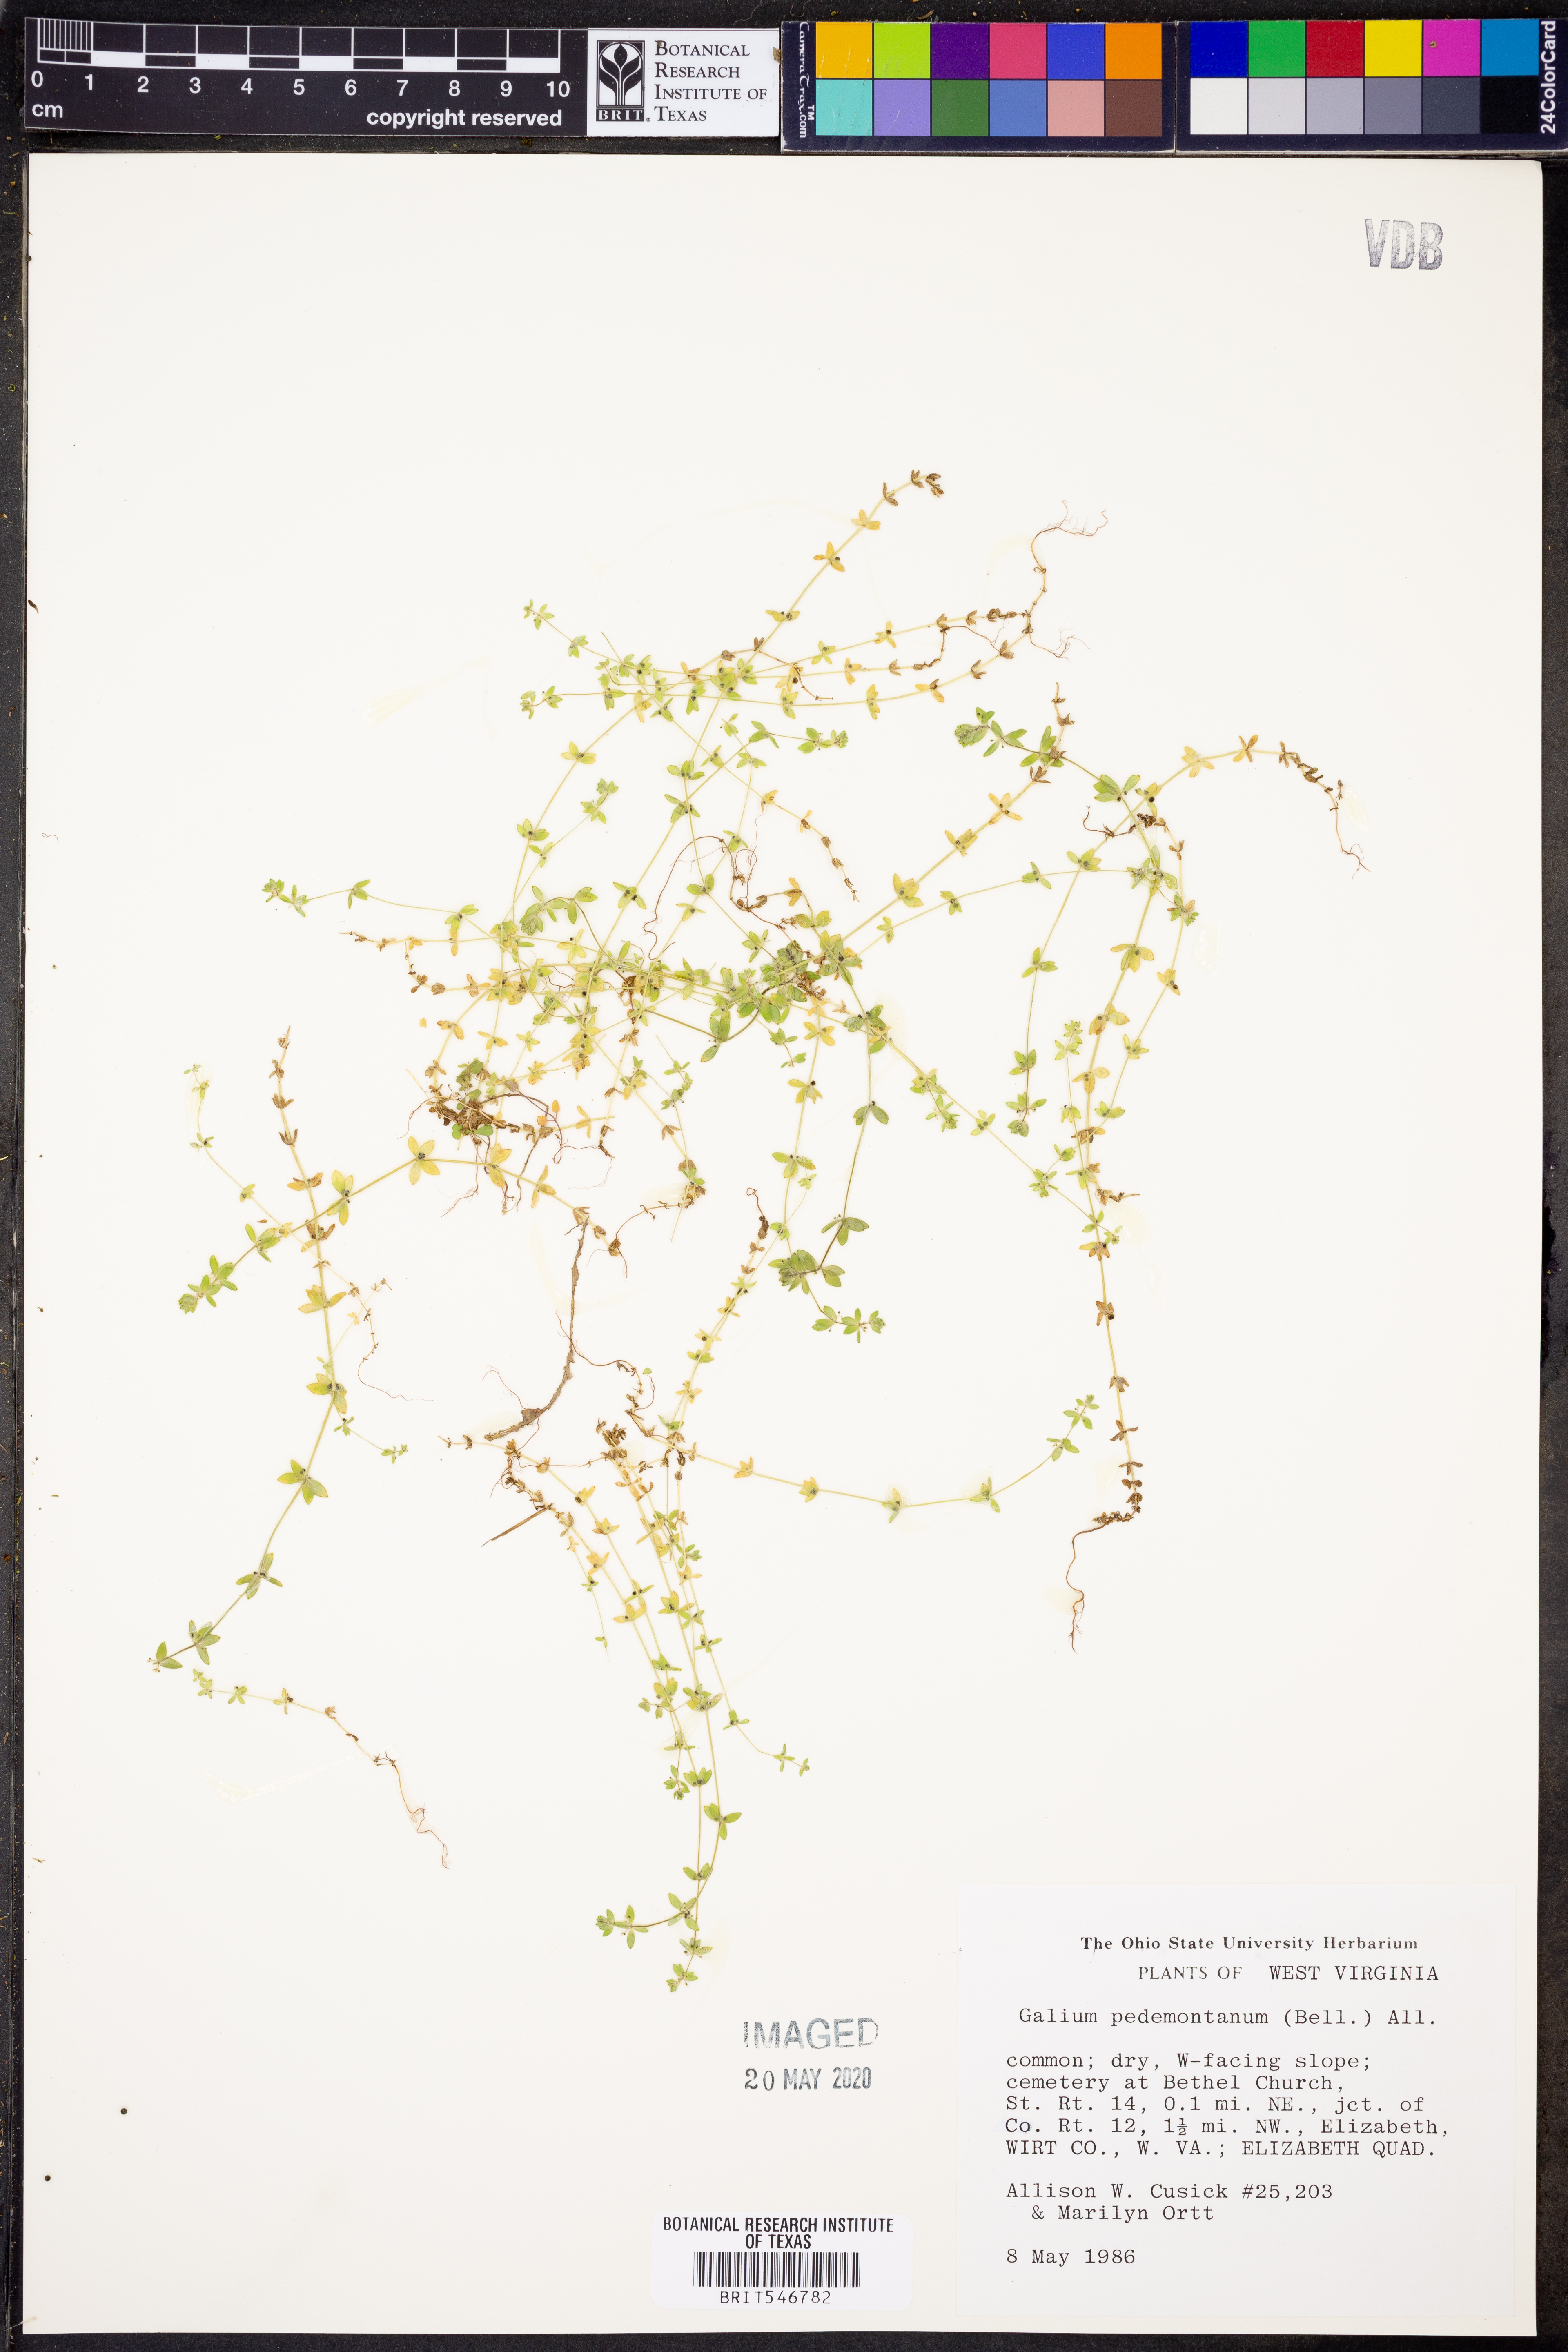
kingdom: Plantae
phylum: Tracheophyta
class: Magnoliopsida
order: Gentianales
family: Rubiaceae
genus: Cruciata
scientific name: Cruciata pedemontana
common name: Piedmont bedstraw
